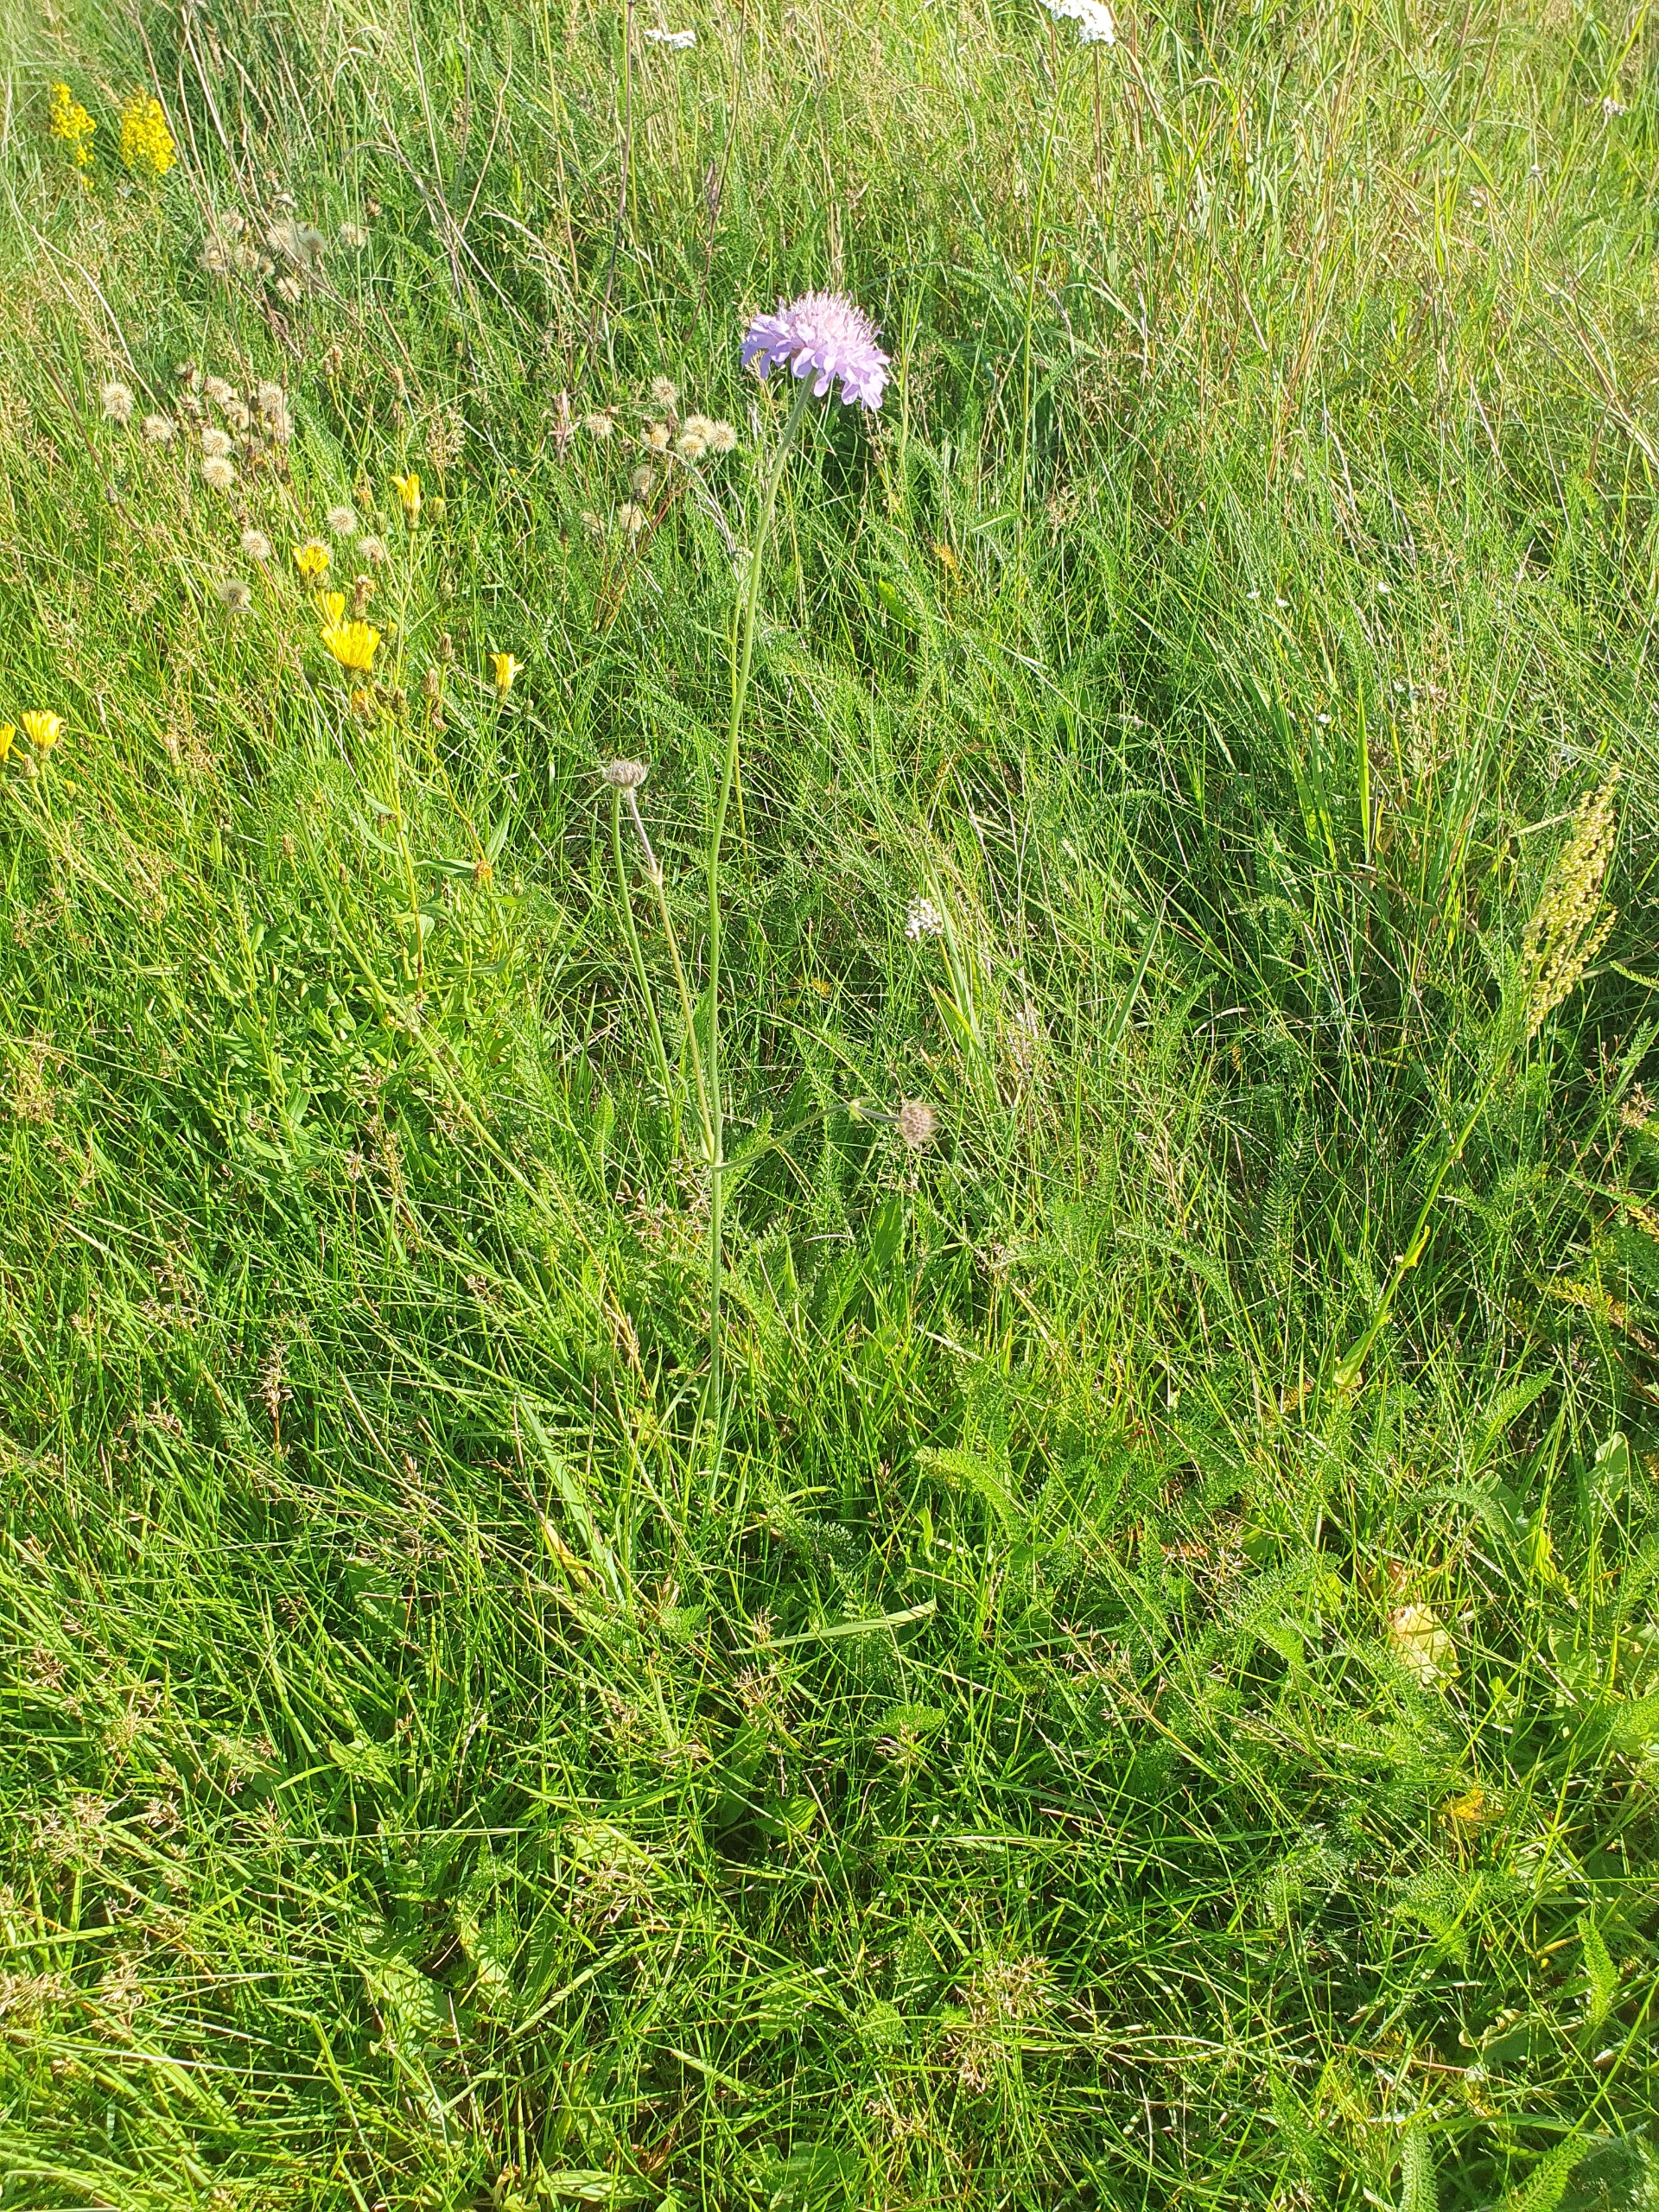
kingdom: Plantae
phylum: Tracheophyta
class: Magnoliopsida
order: Dipsacales
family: Caprifoliaceae
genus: Knautia
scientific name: Knautia arvensis
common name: Blåhat
